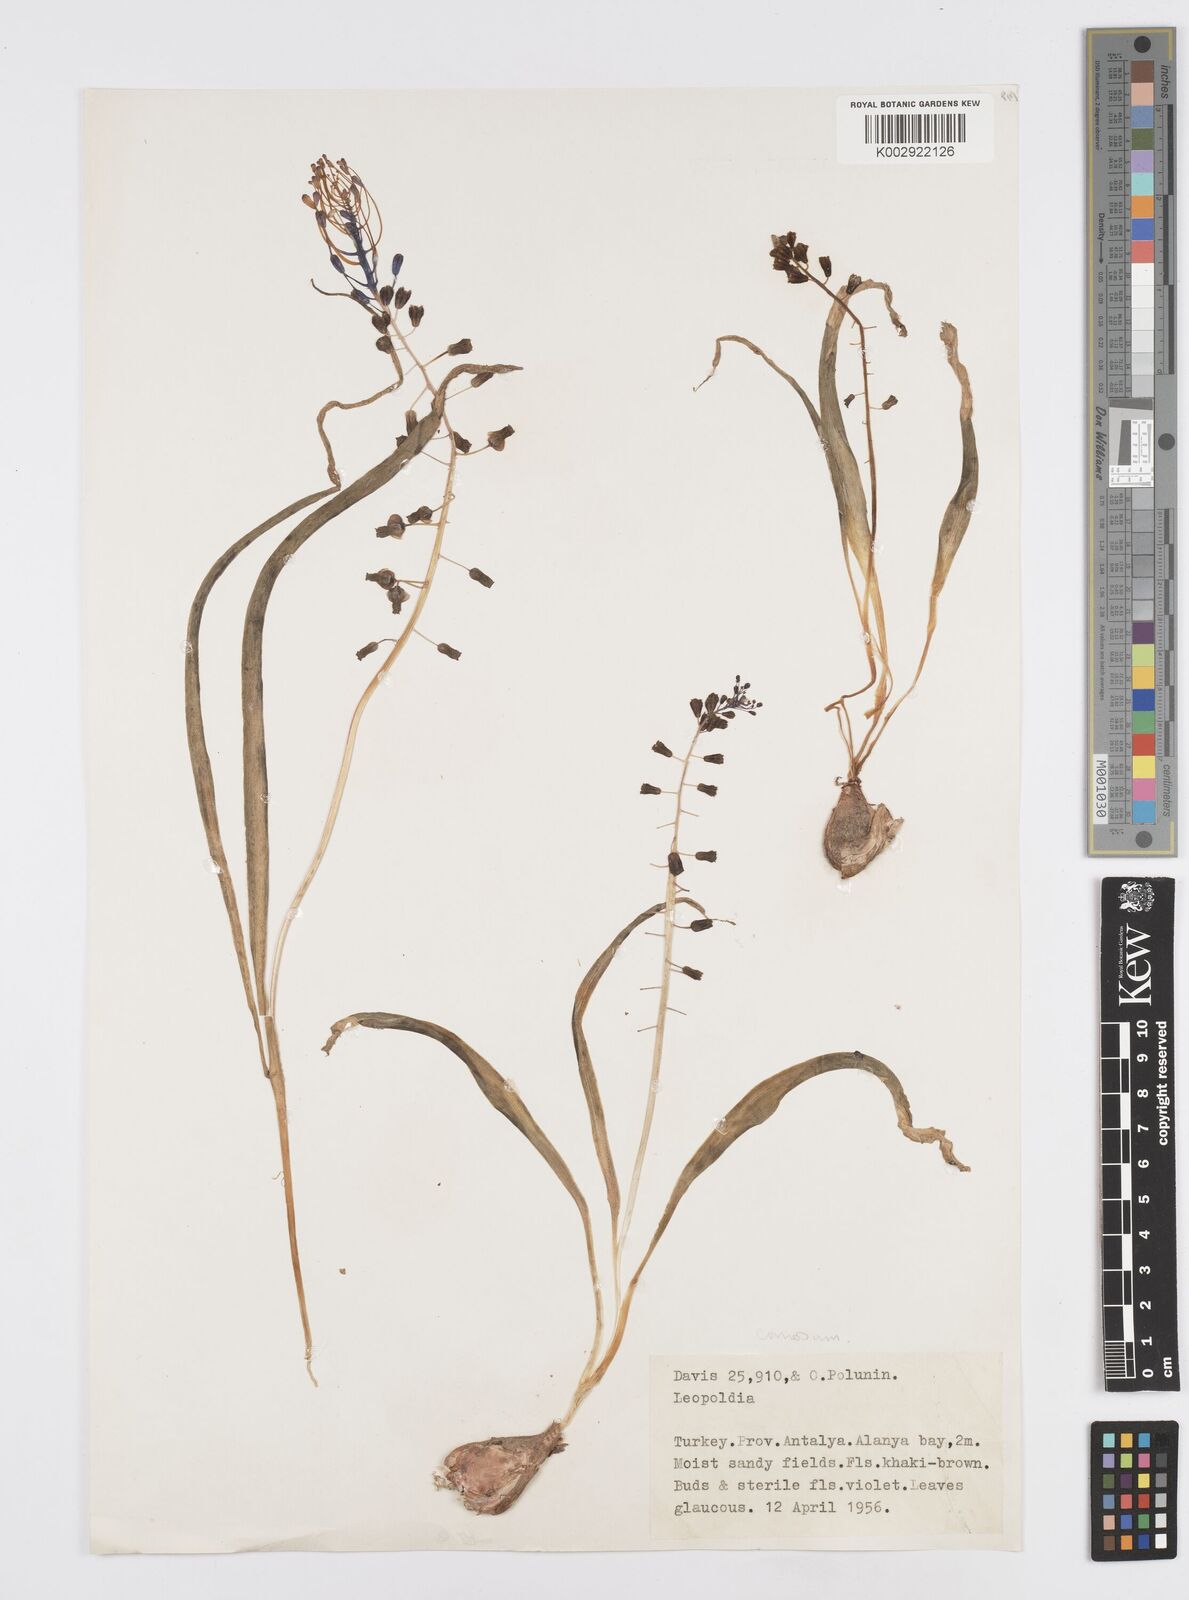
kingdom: Plantae
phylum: Tracheophyta
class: Liliopsida
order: Asparagales
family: Asparagaceae
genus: Muscari
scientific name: Muscari comosum
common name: Tassel hyacinth
